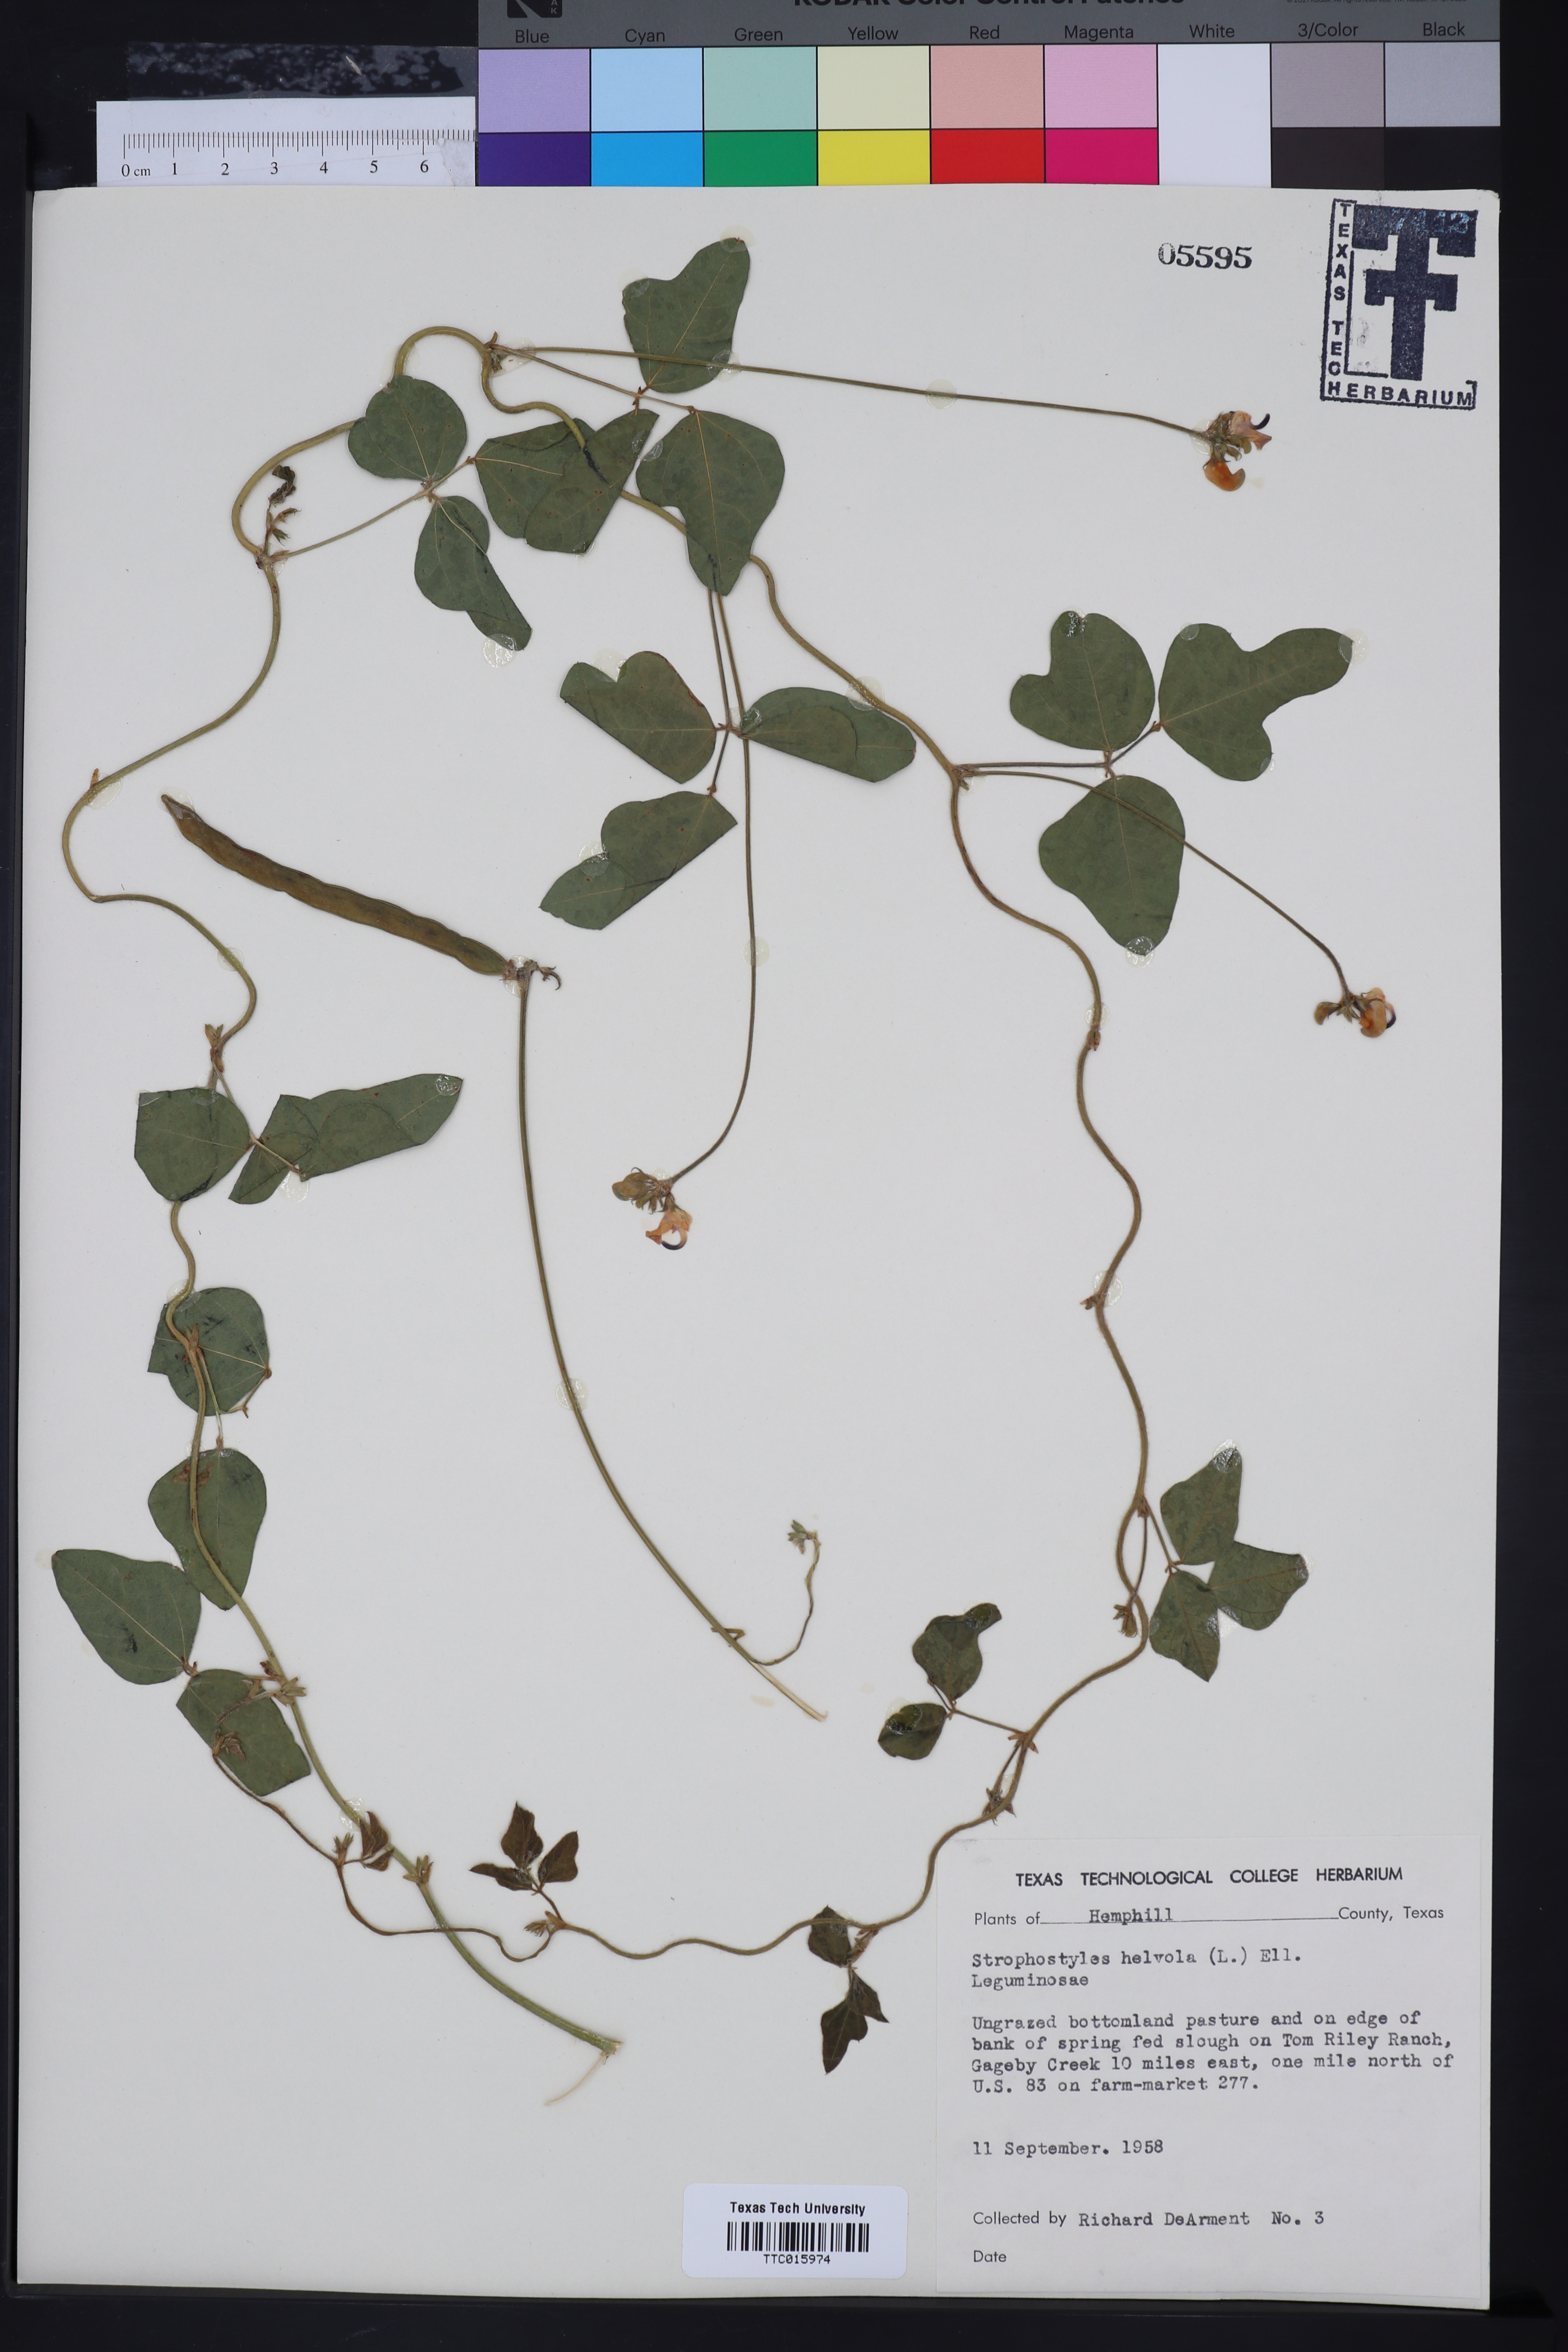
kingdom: Plantae
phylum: Tracheophyta
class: Magnoliopsida
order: Fabales
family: Fabaceae
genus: Strophostyles
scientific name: Strophostyles helvola
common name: Trailing wild bean
